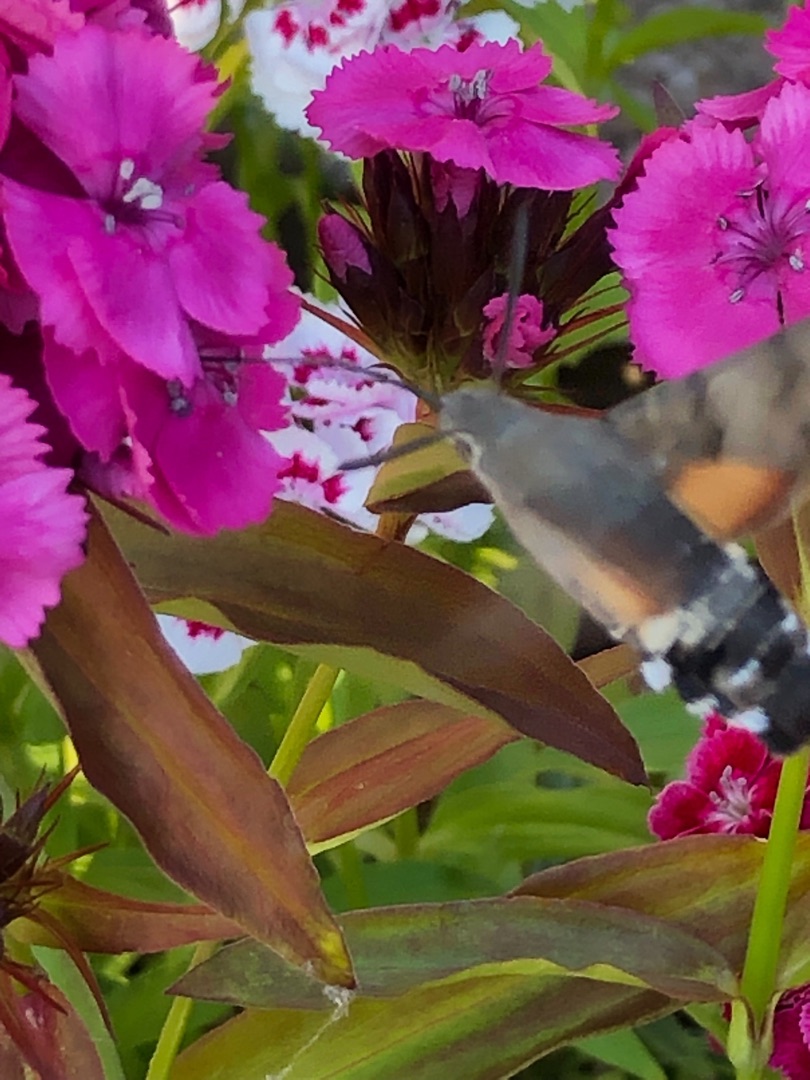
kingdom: Animalia
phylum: Arthropoda
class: Insecta
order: Lepidoptera
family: Sphingidae
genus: Macroglossum
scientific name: Macroglossum stellatarum
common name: Duehale
